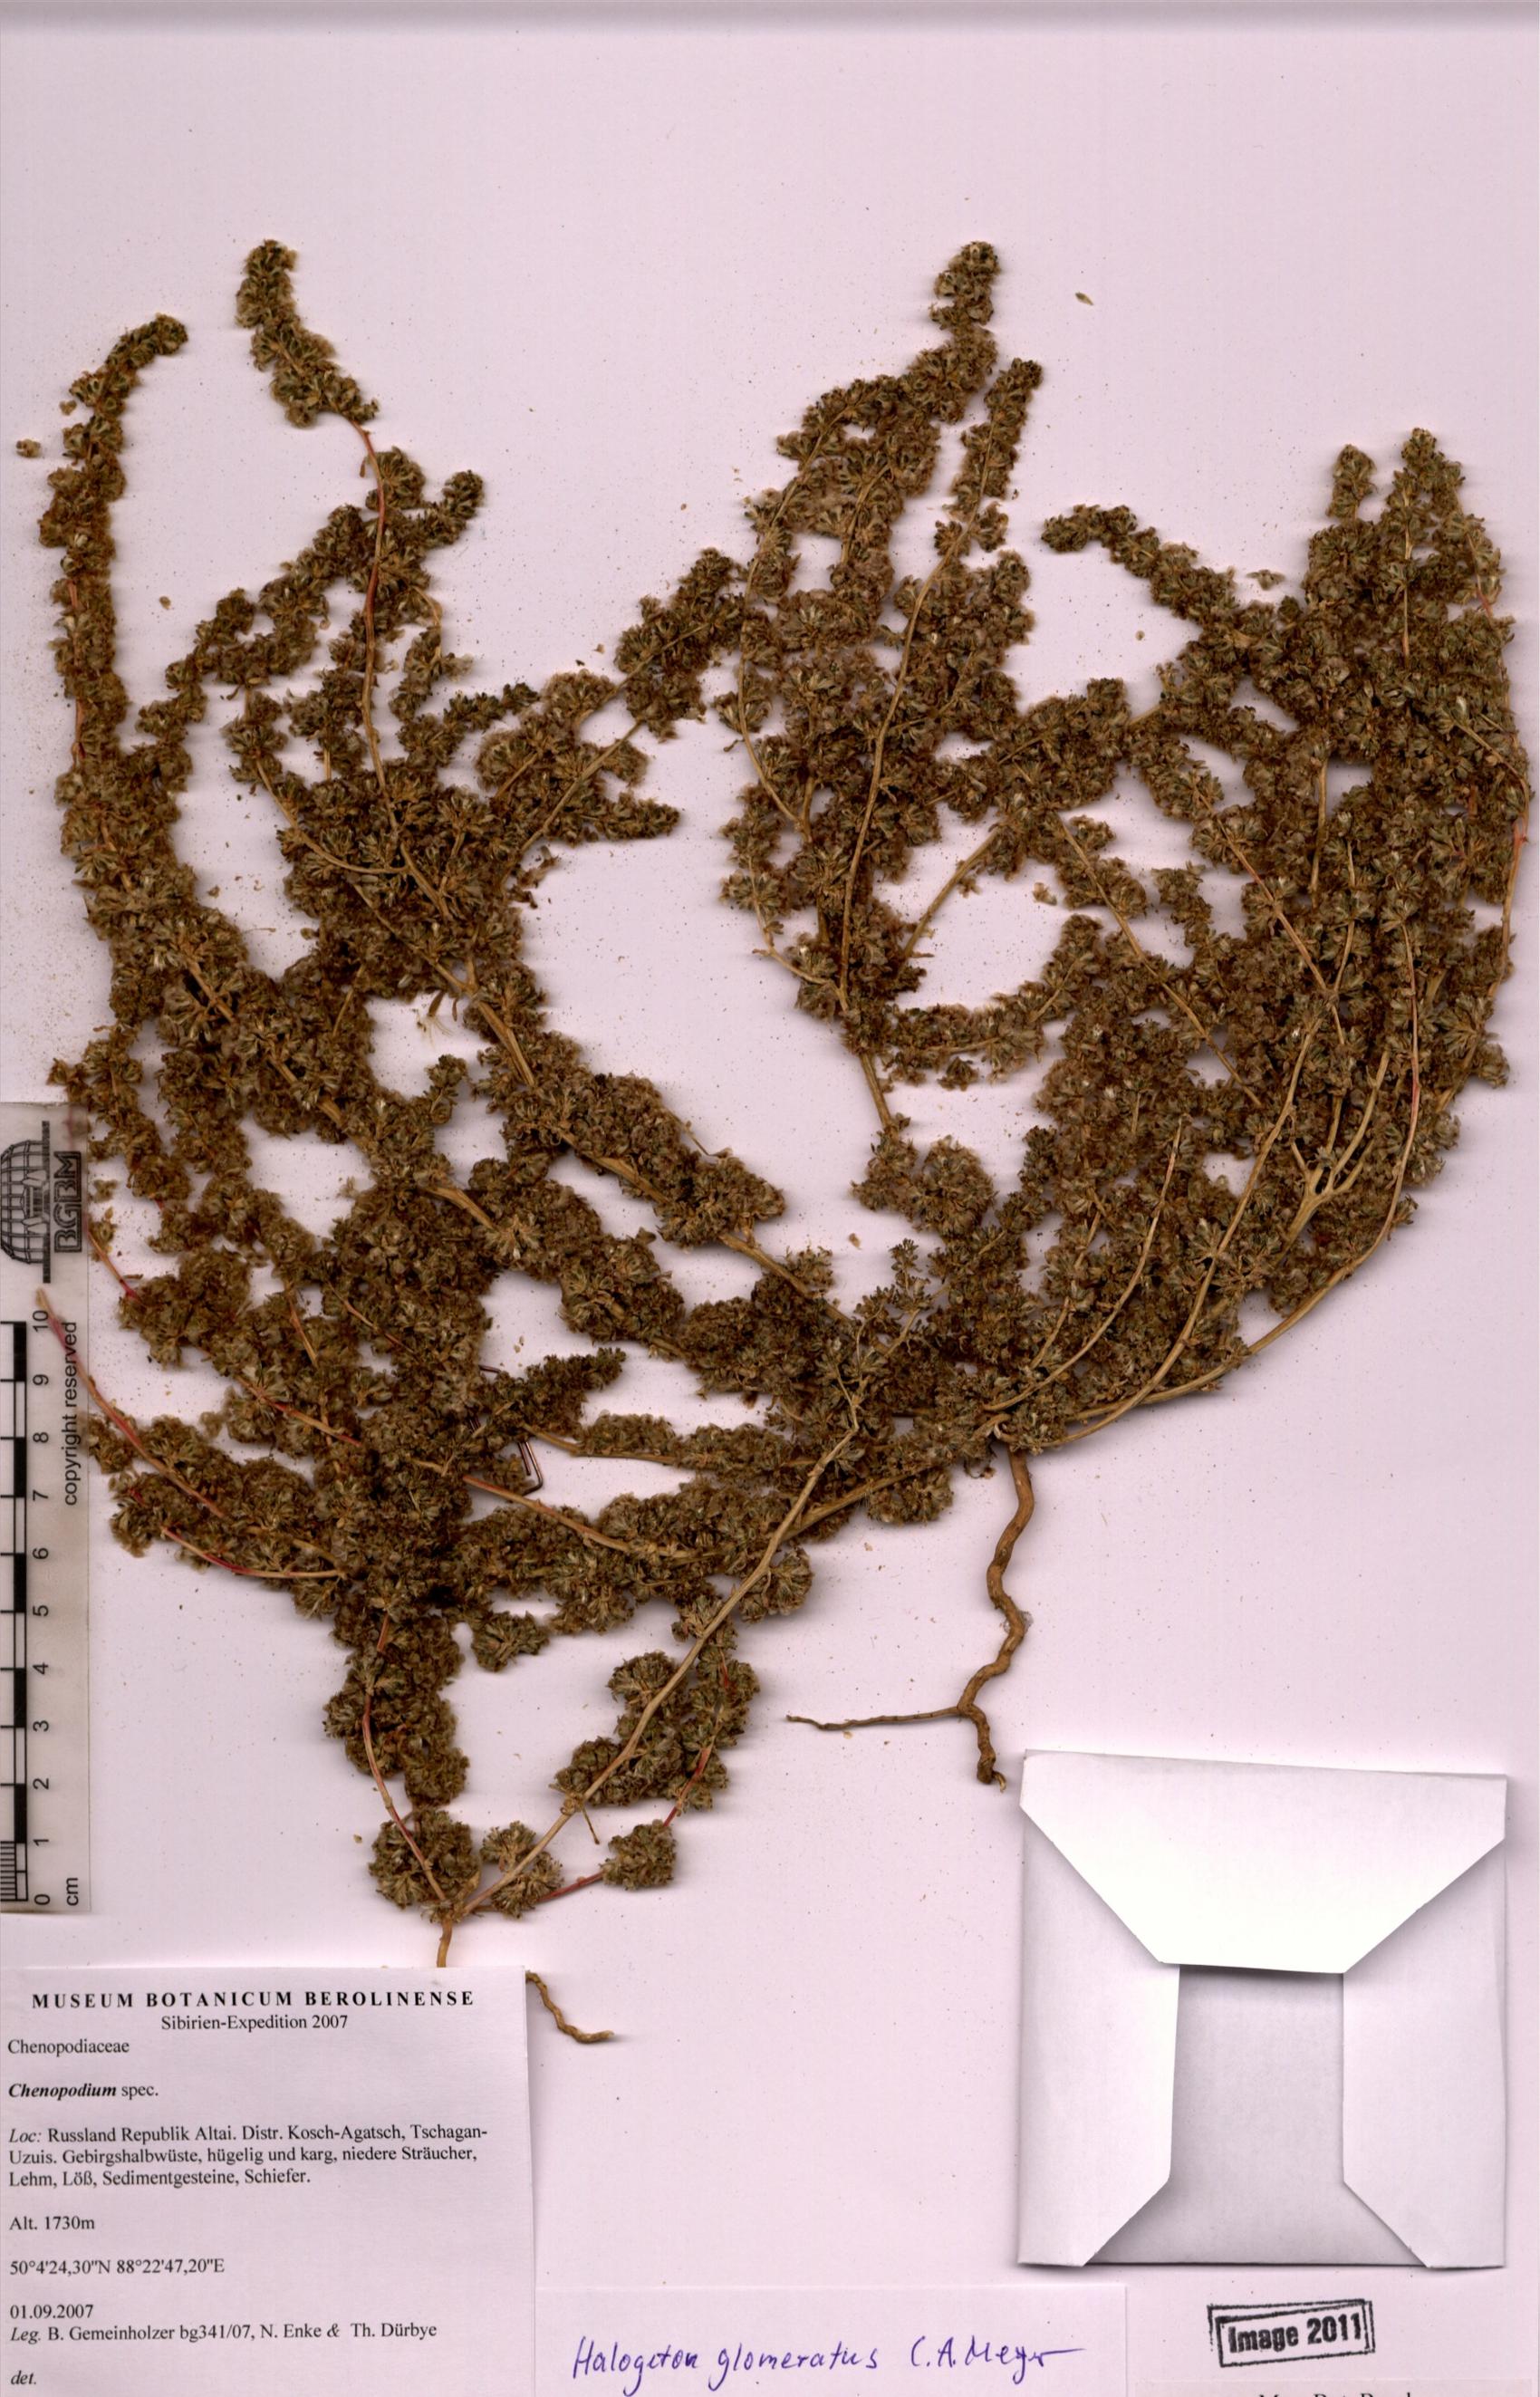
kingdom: Plantae
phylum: Tracheophyta
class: Magnoliopsida
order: Caryophyllales
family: Amaranthaceae
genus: Halogeton
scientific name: Halogeton glomeratus
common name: Saltlover
